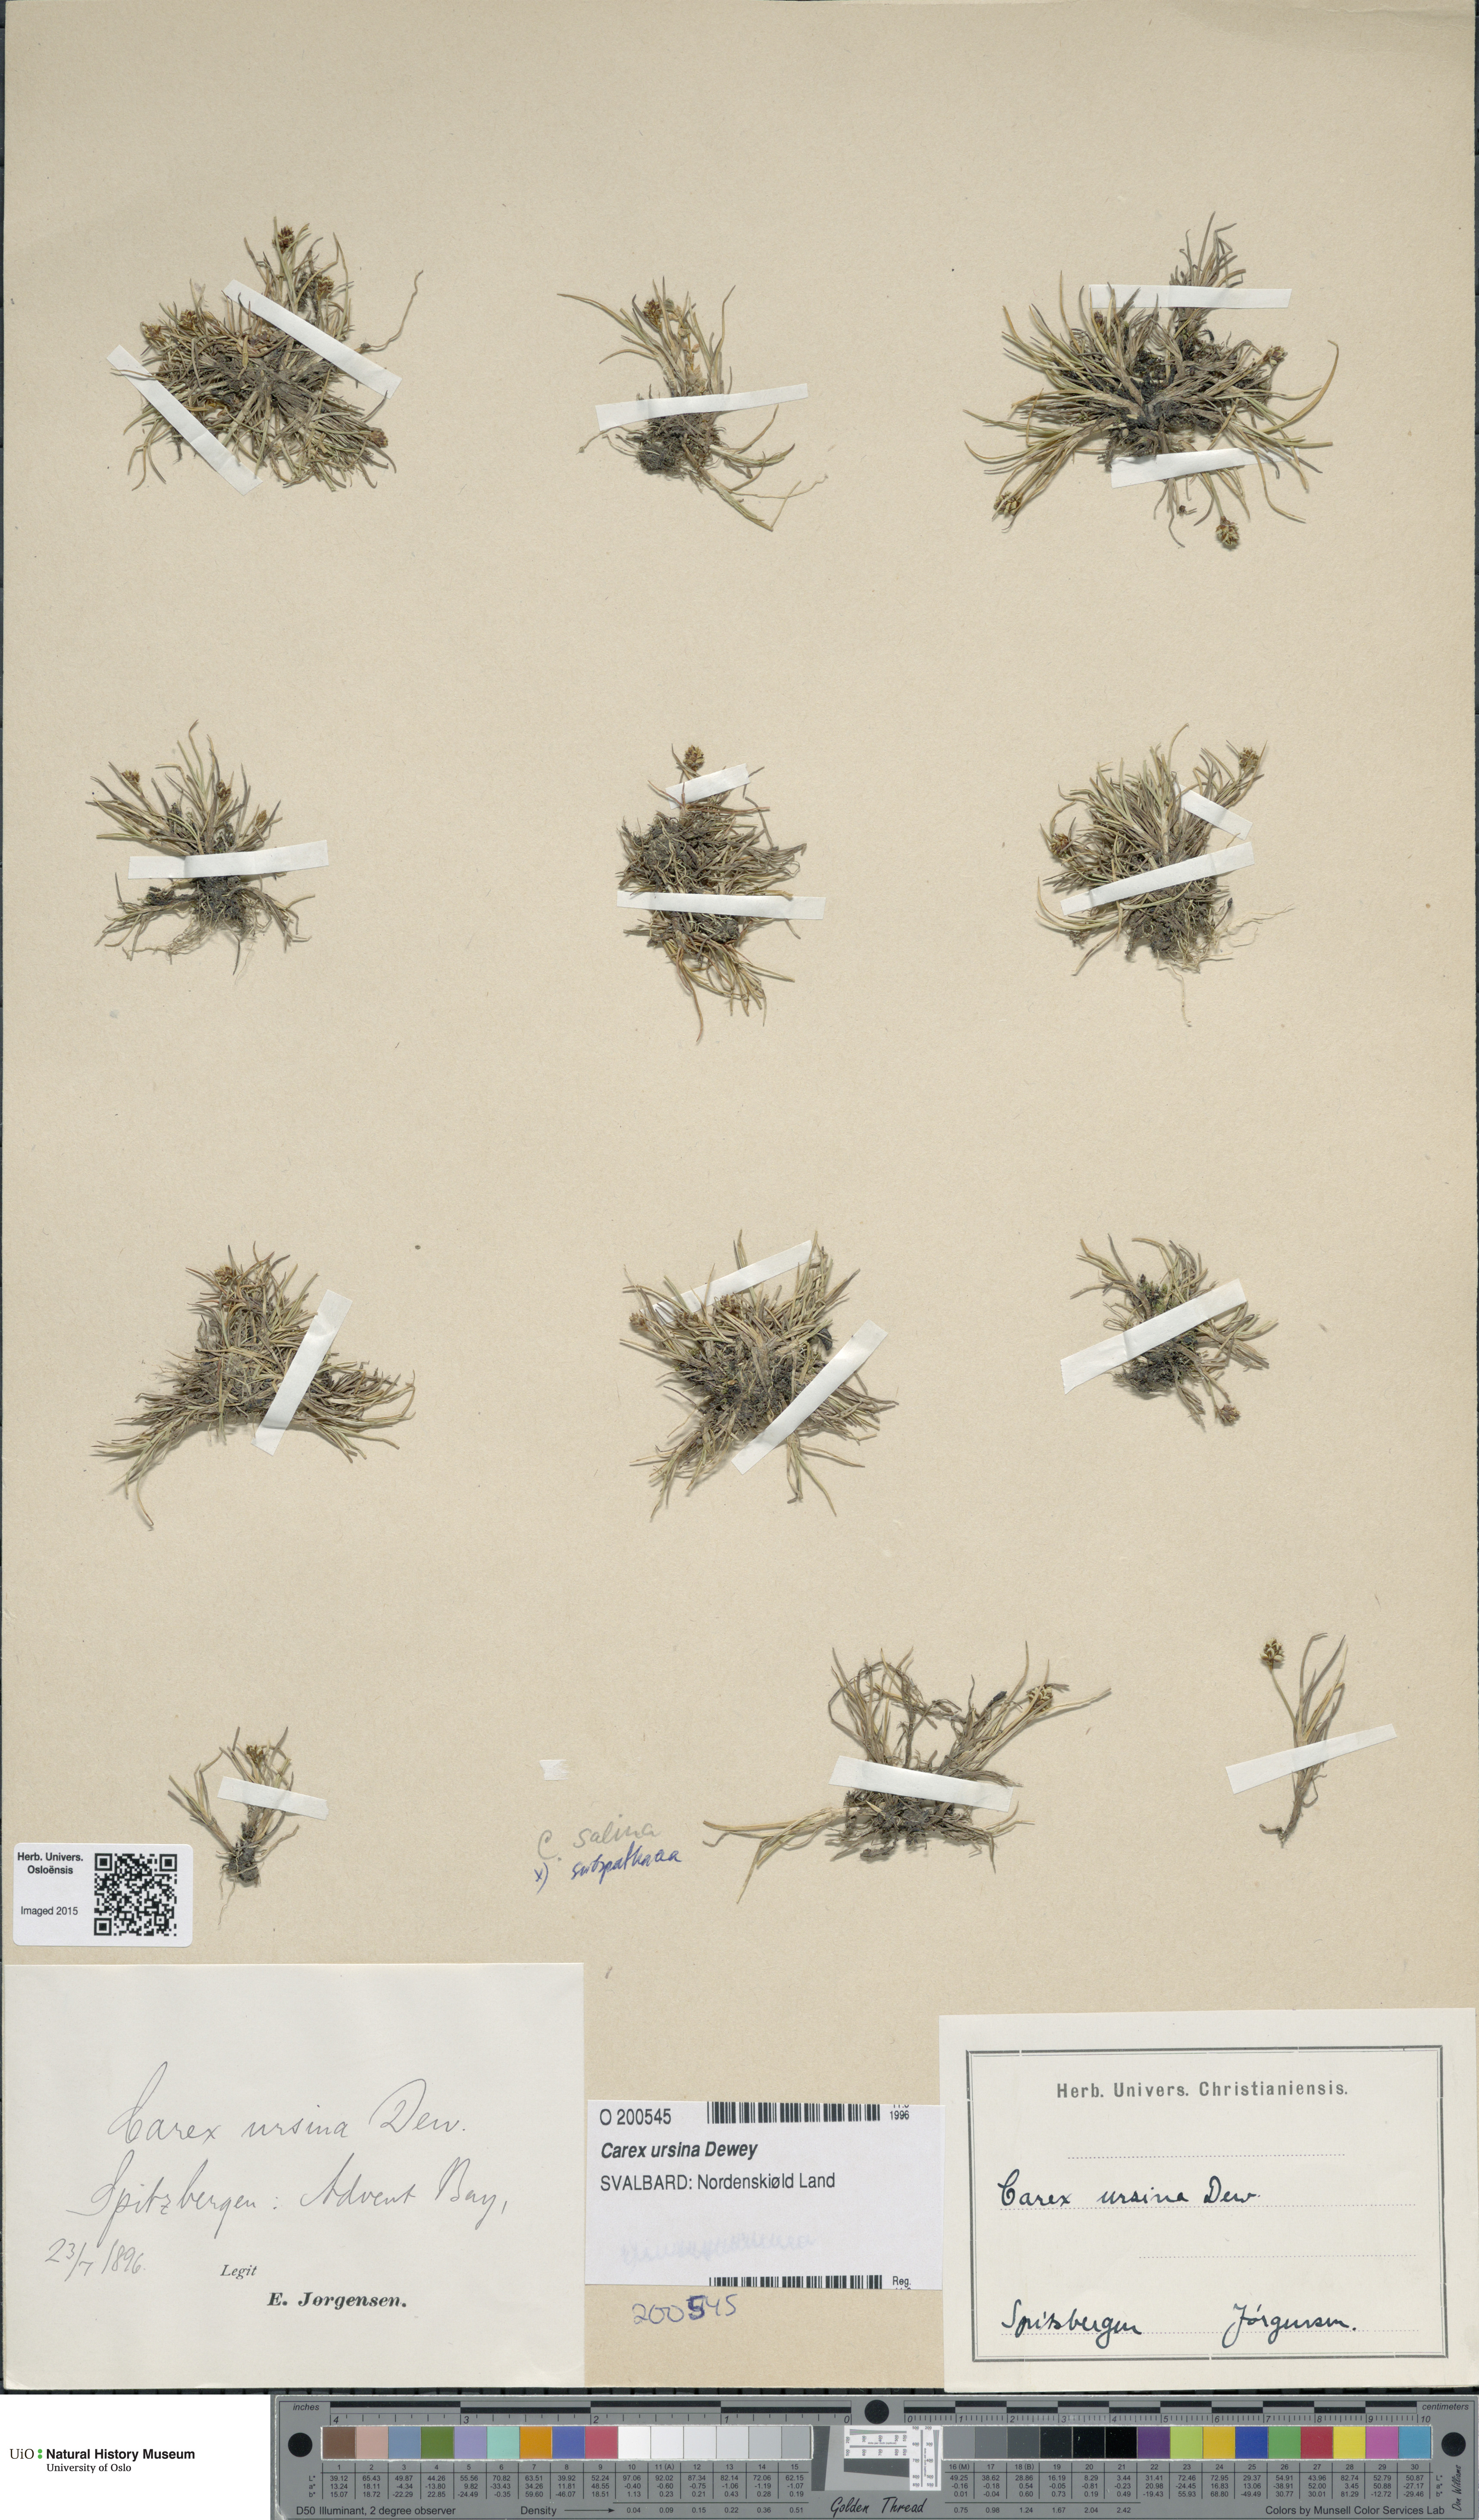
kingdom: Plantae
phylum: Tracheophyta
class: Liliopsida
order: Poales
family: Cyperaceae
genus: Carex
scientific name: Carex ursina
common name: Bear sedge
